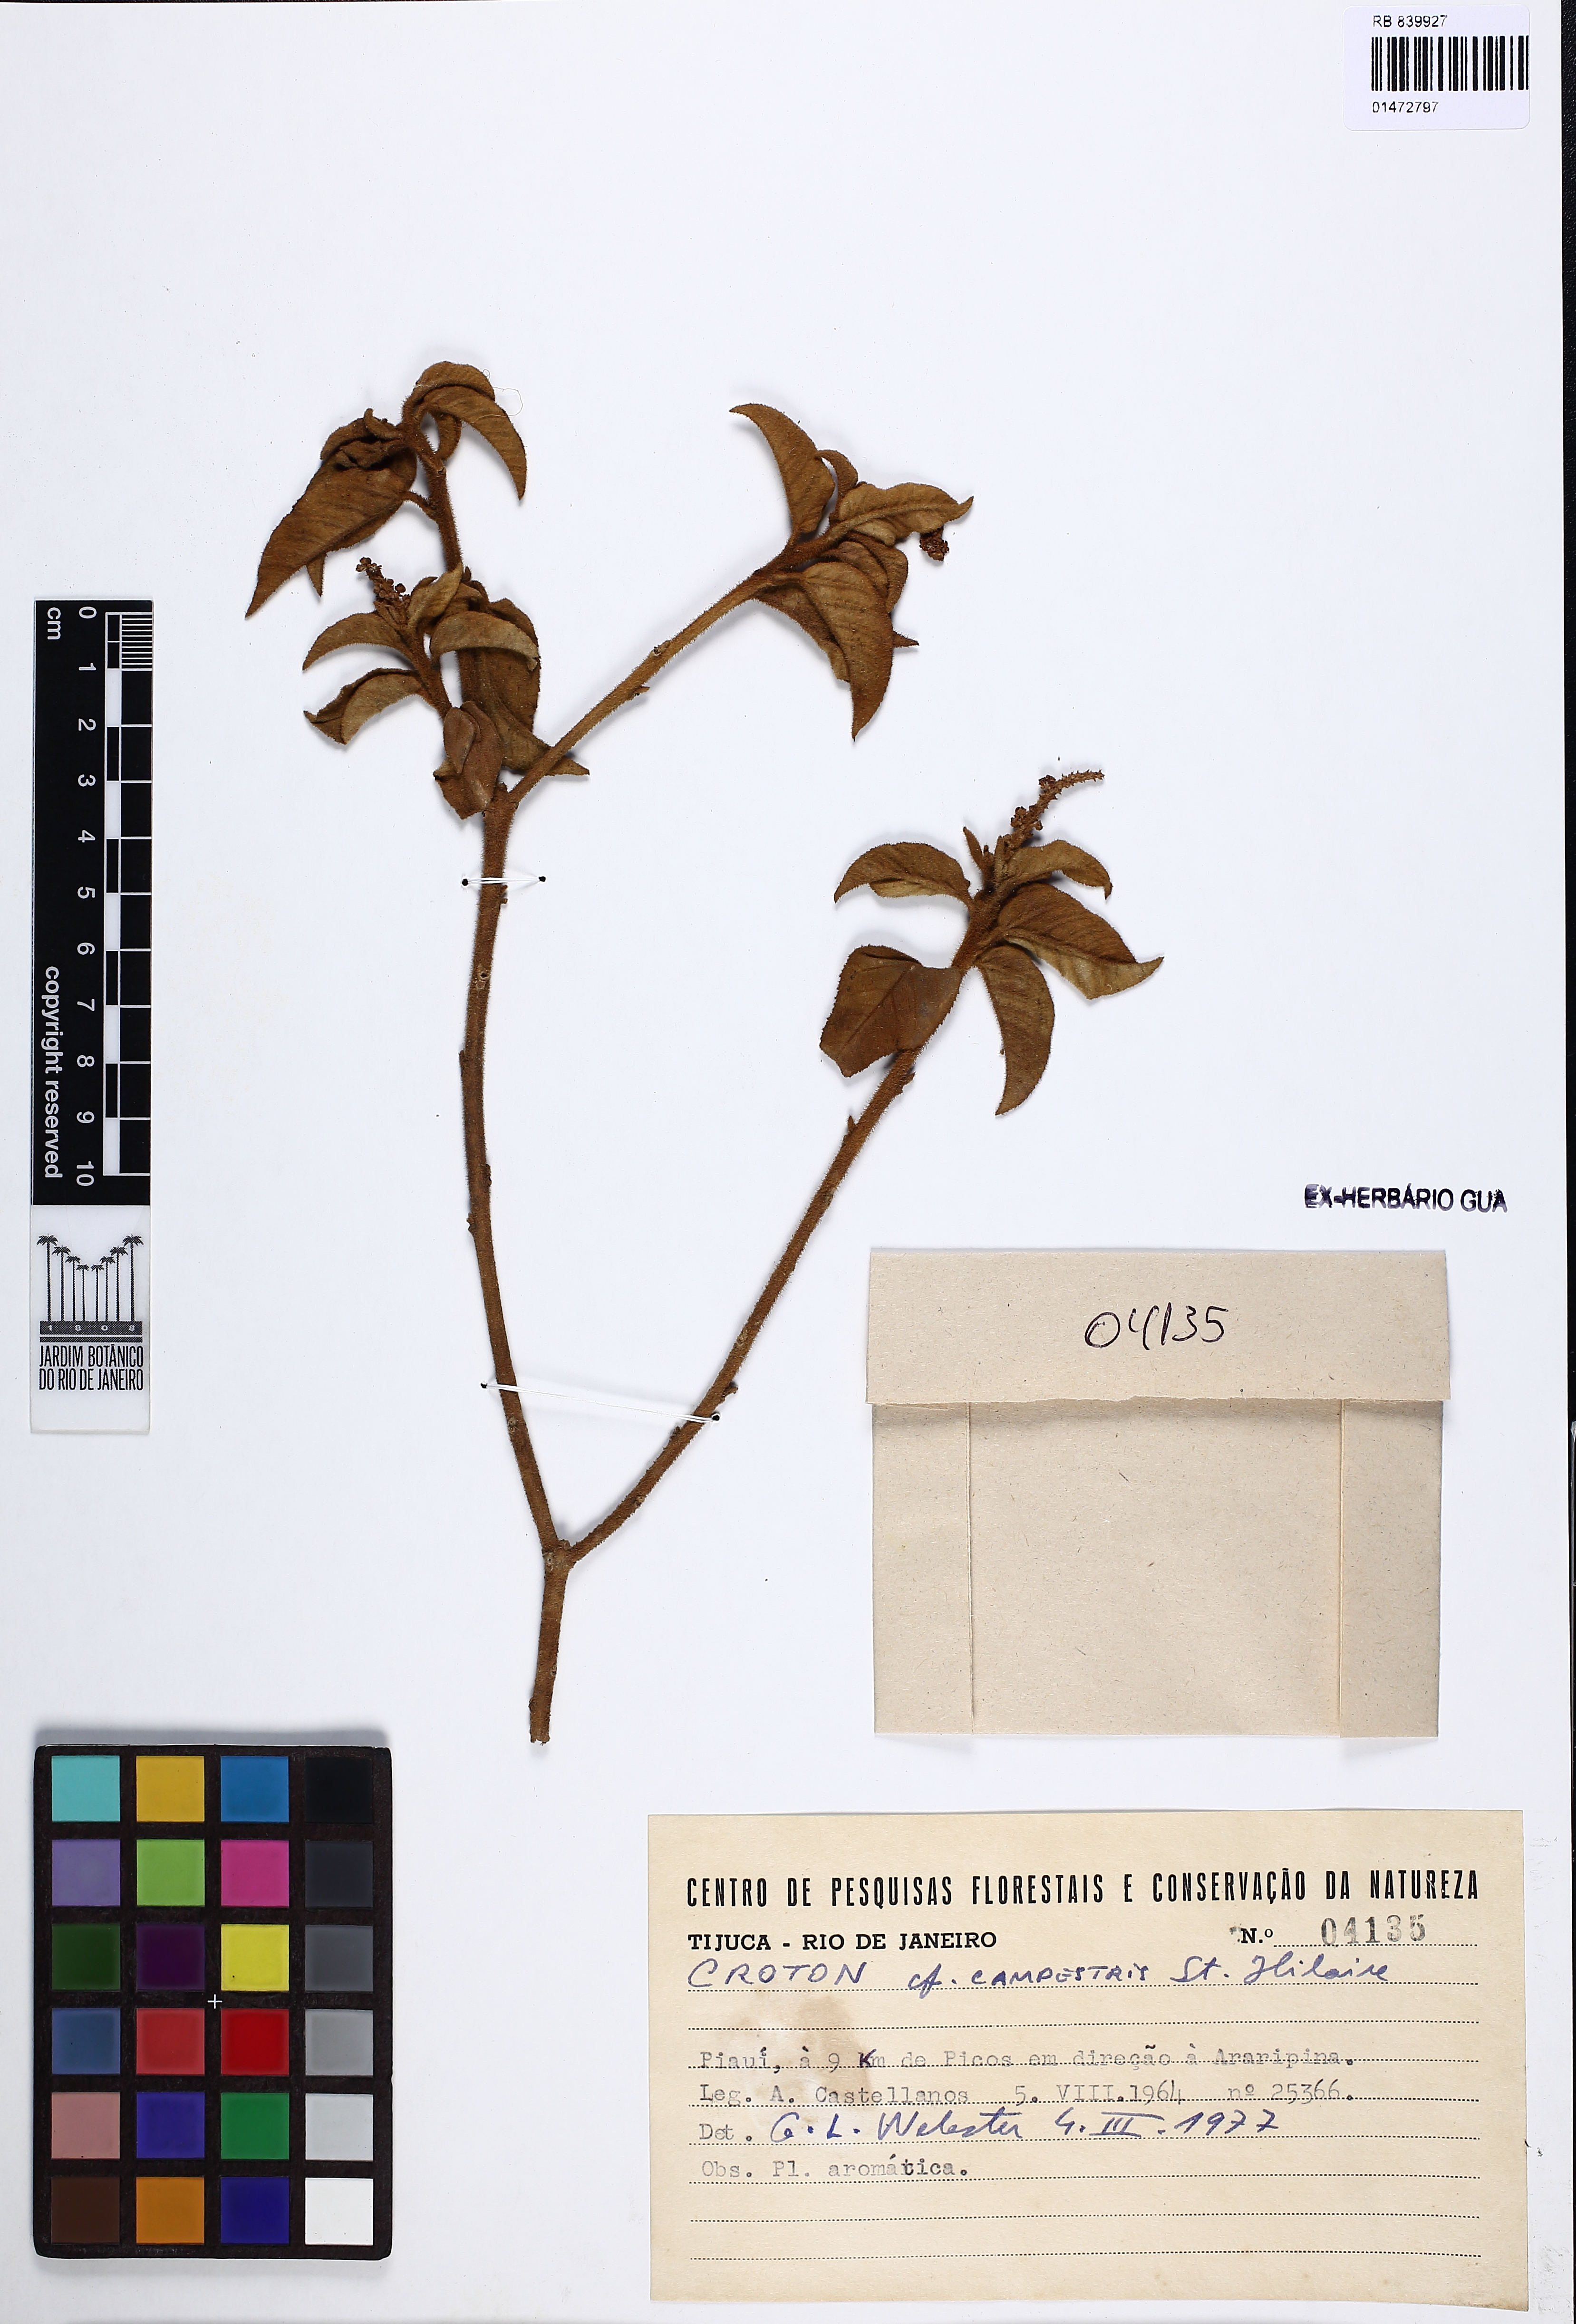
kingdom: Plantae
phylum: Tracheophyta
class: Magnoliopsida
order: Malpighiales
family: Euphorbiaceae
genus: Croton
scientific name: Croton campestris
